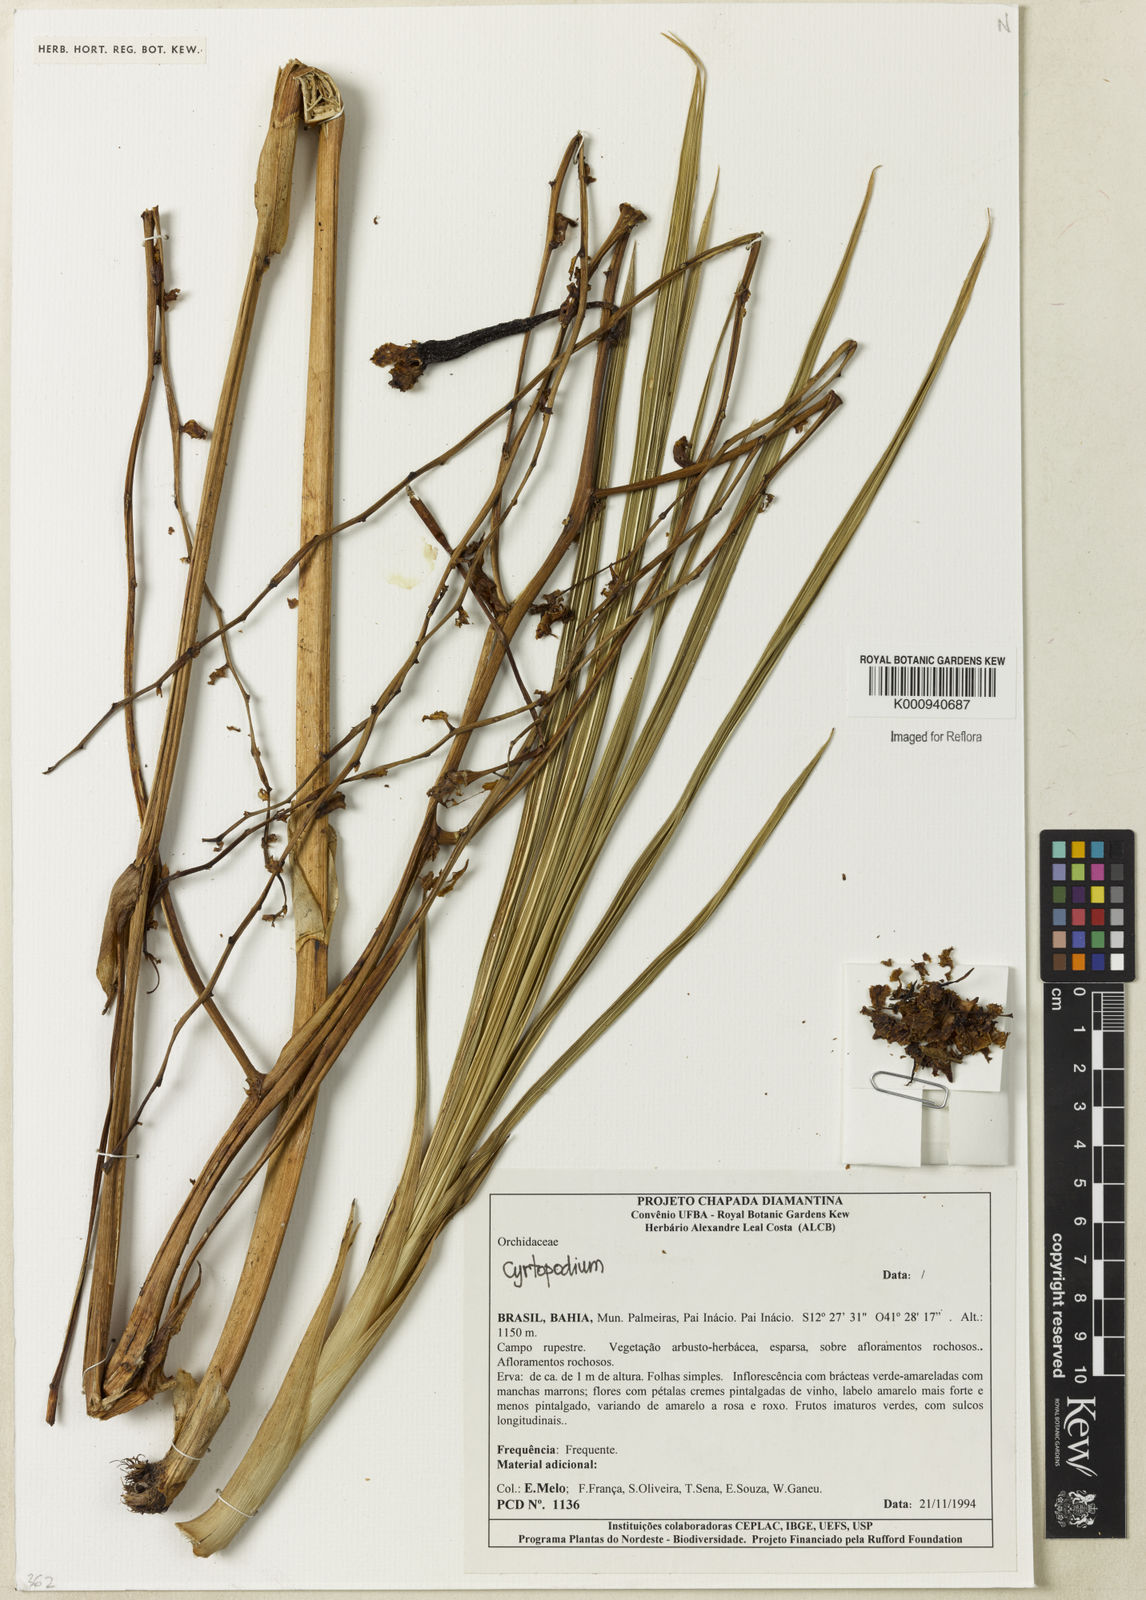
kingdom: Plantae
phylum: Tracheophyta
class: Liliopsida
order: Asparagales
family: Orchidaceae
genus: Cyrtopodium
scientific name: Cyrtopodium
